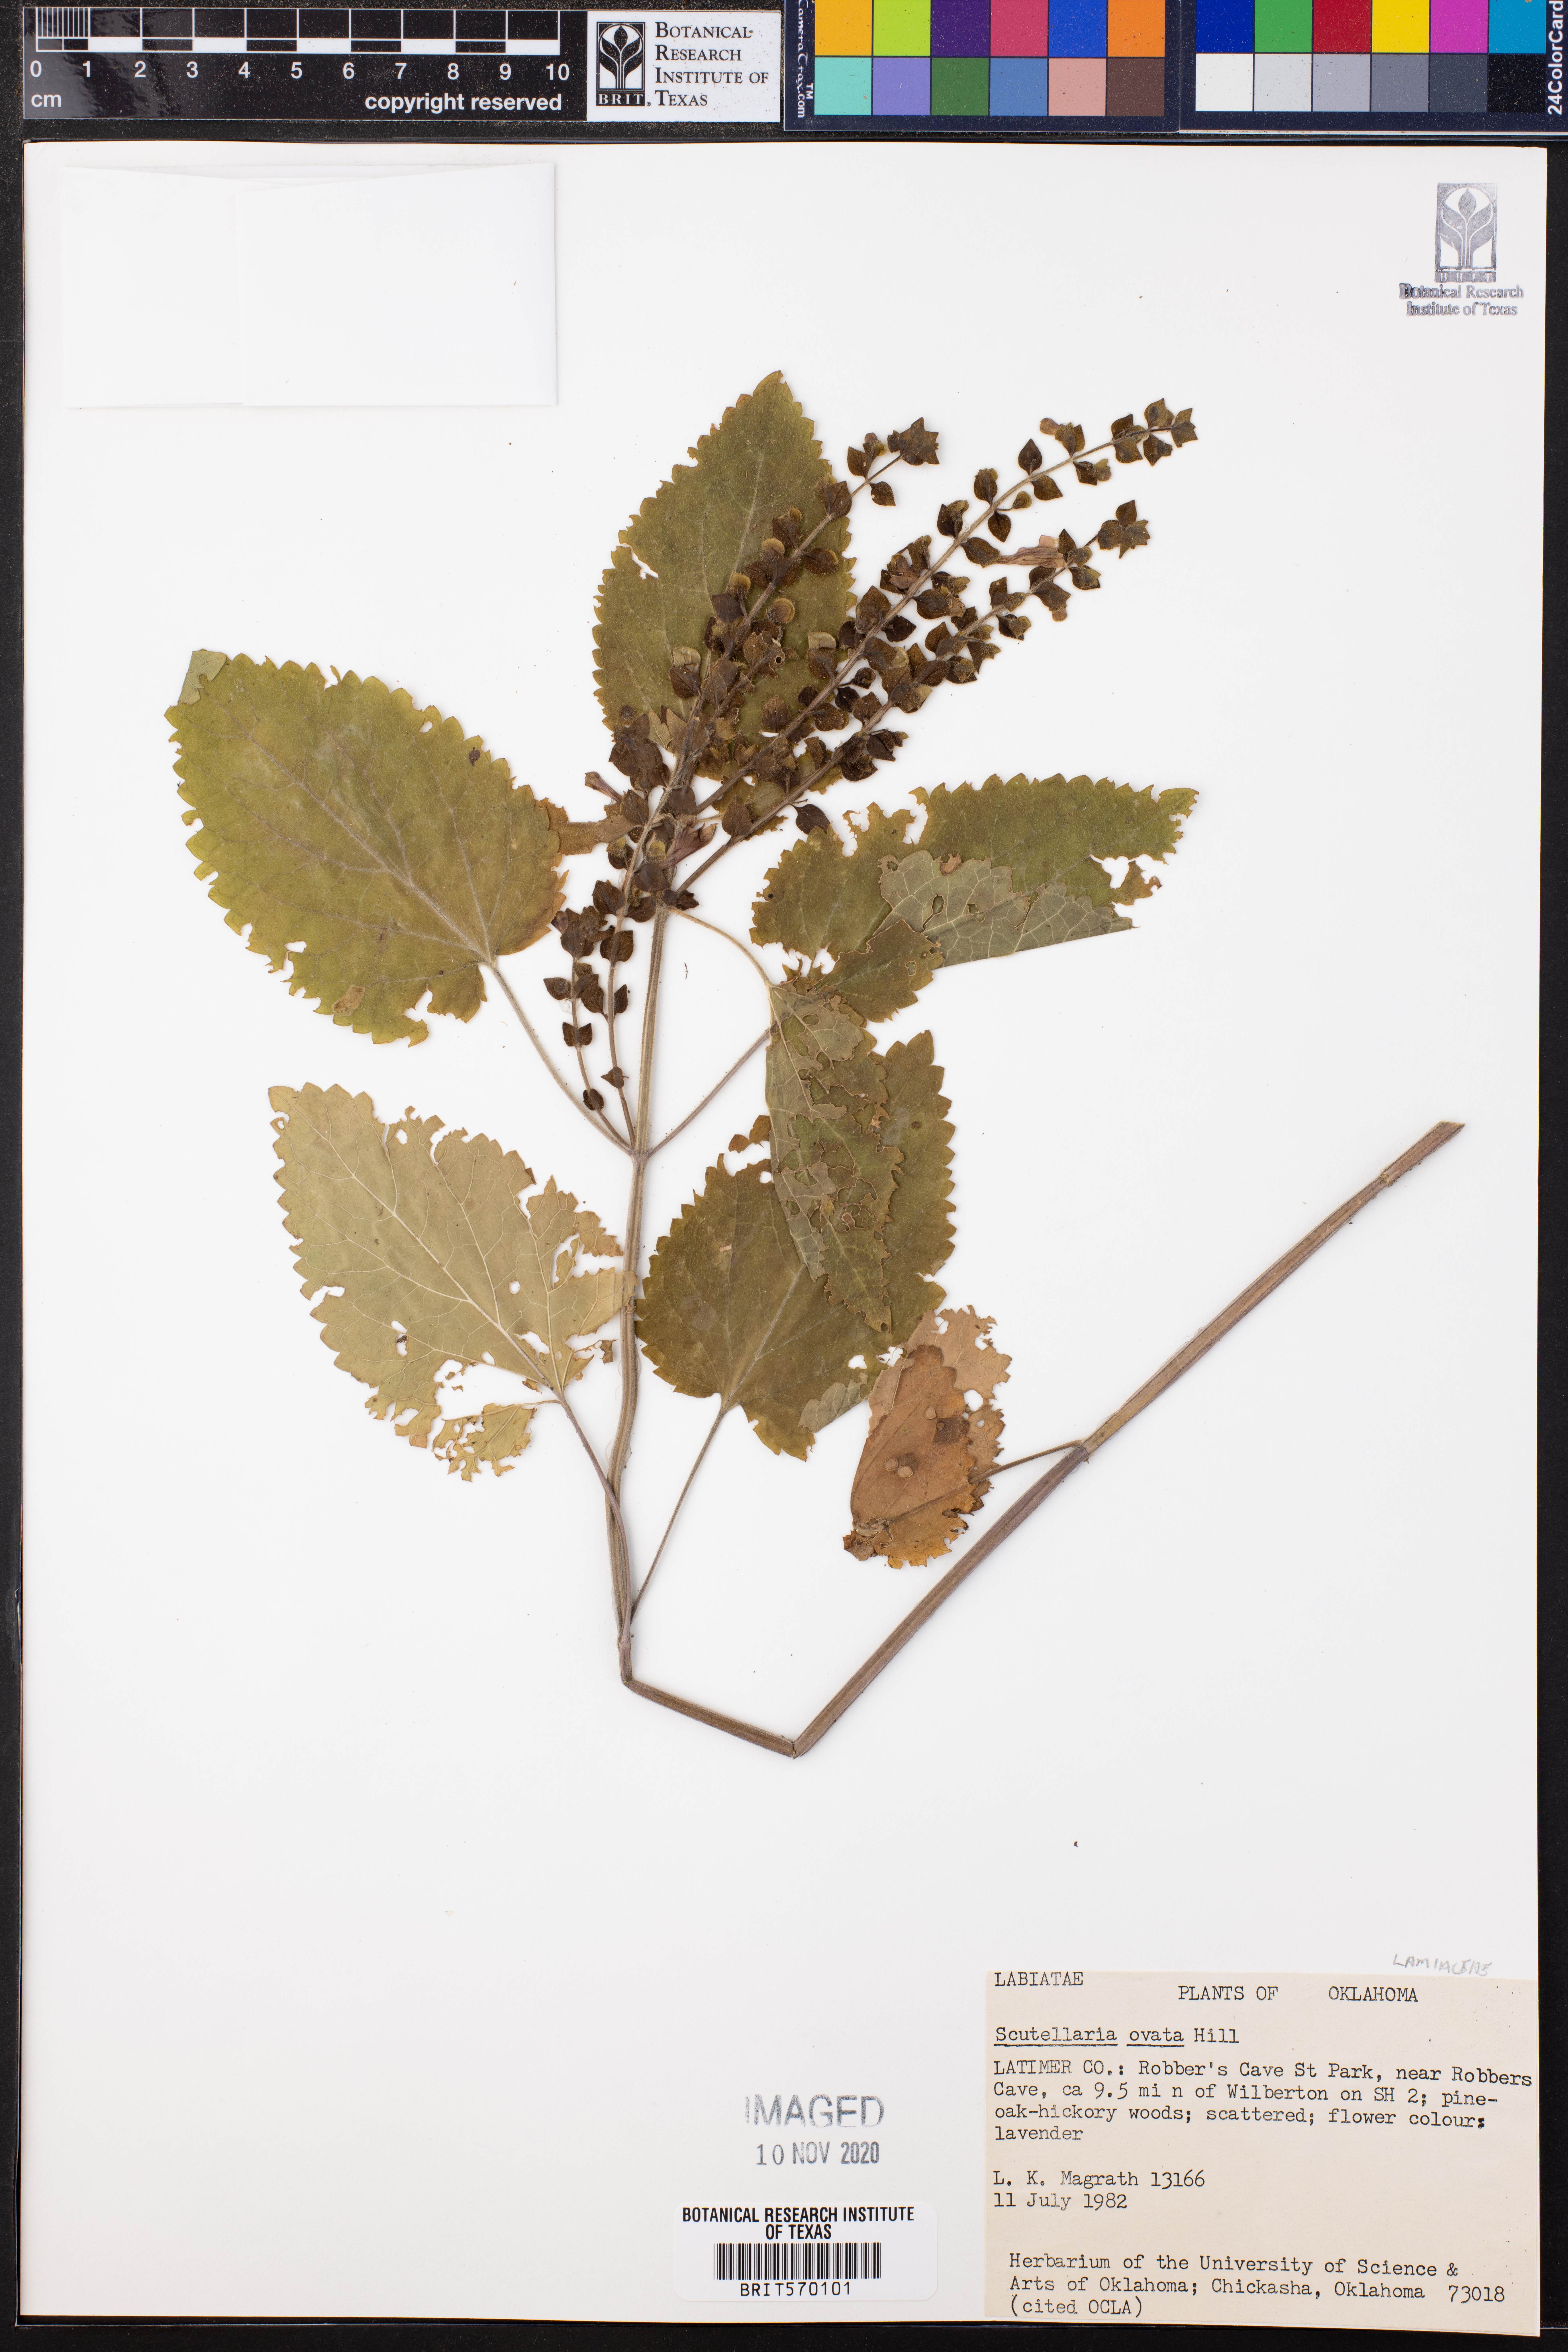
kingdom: Plantae
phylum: Tracheophyta
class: Magnoliopsida
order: Lamiales
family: Lamiaceae
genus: Scutellaria
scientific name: Scutellaria ovata
